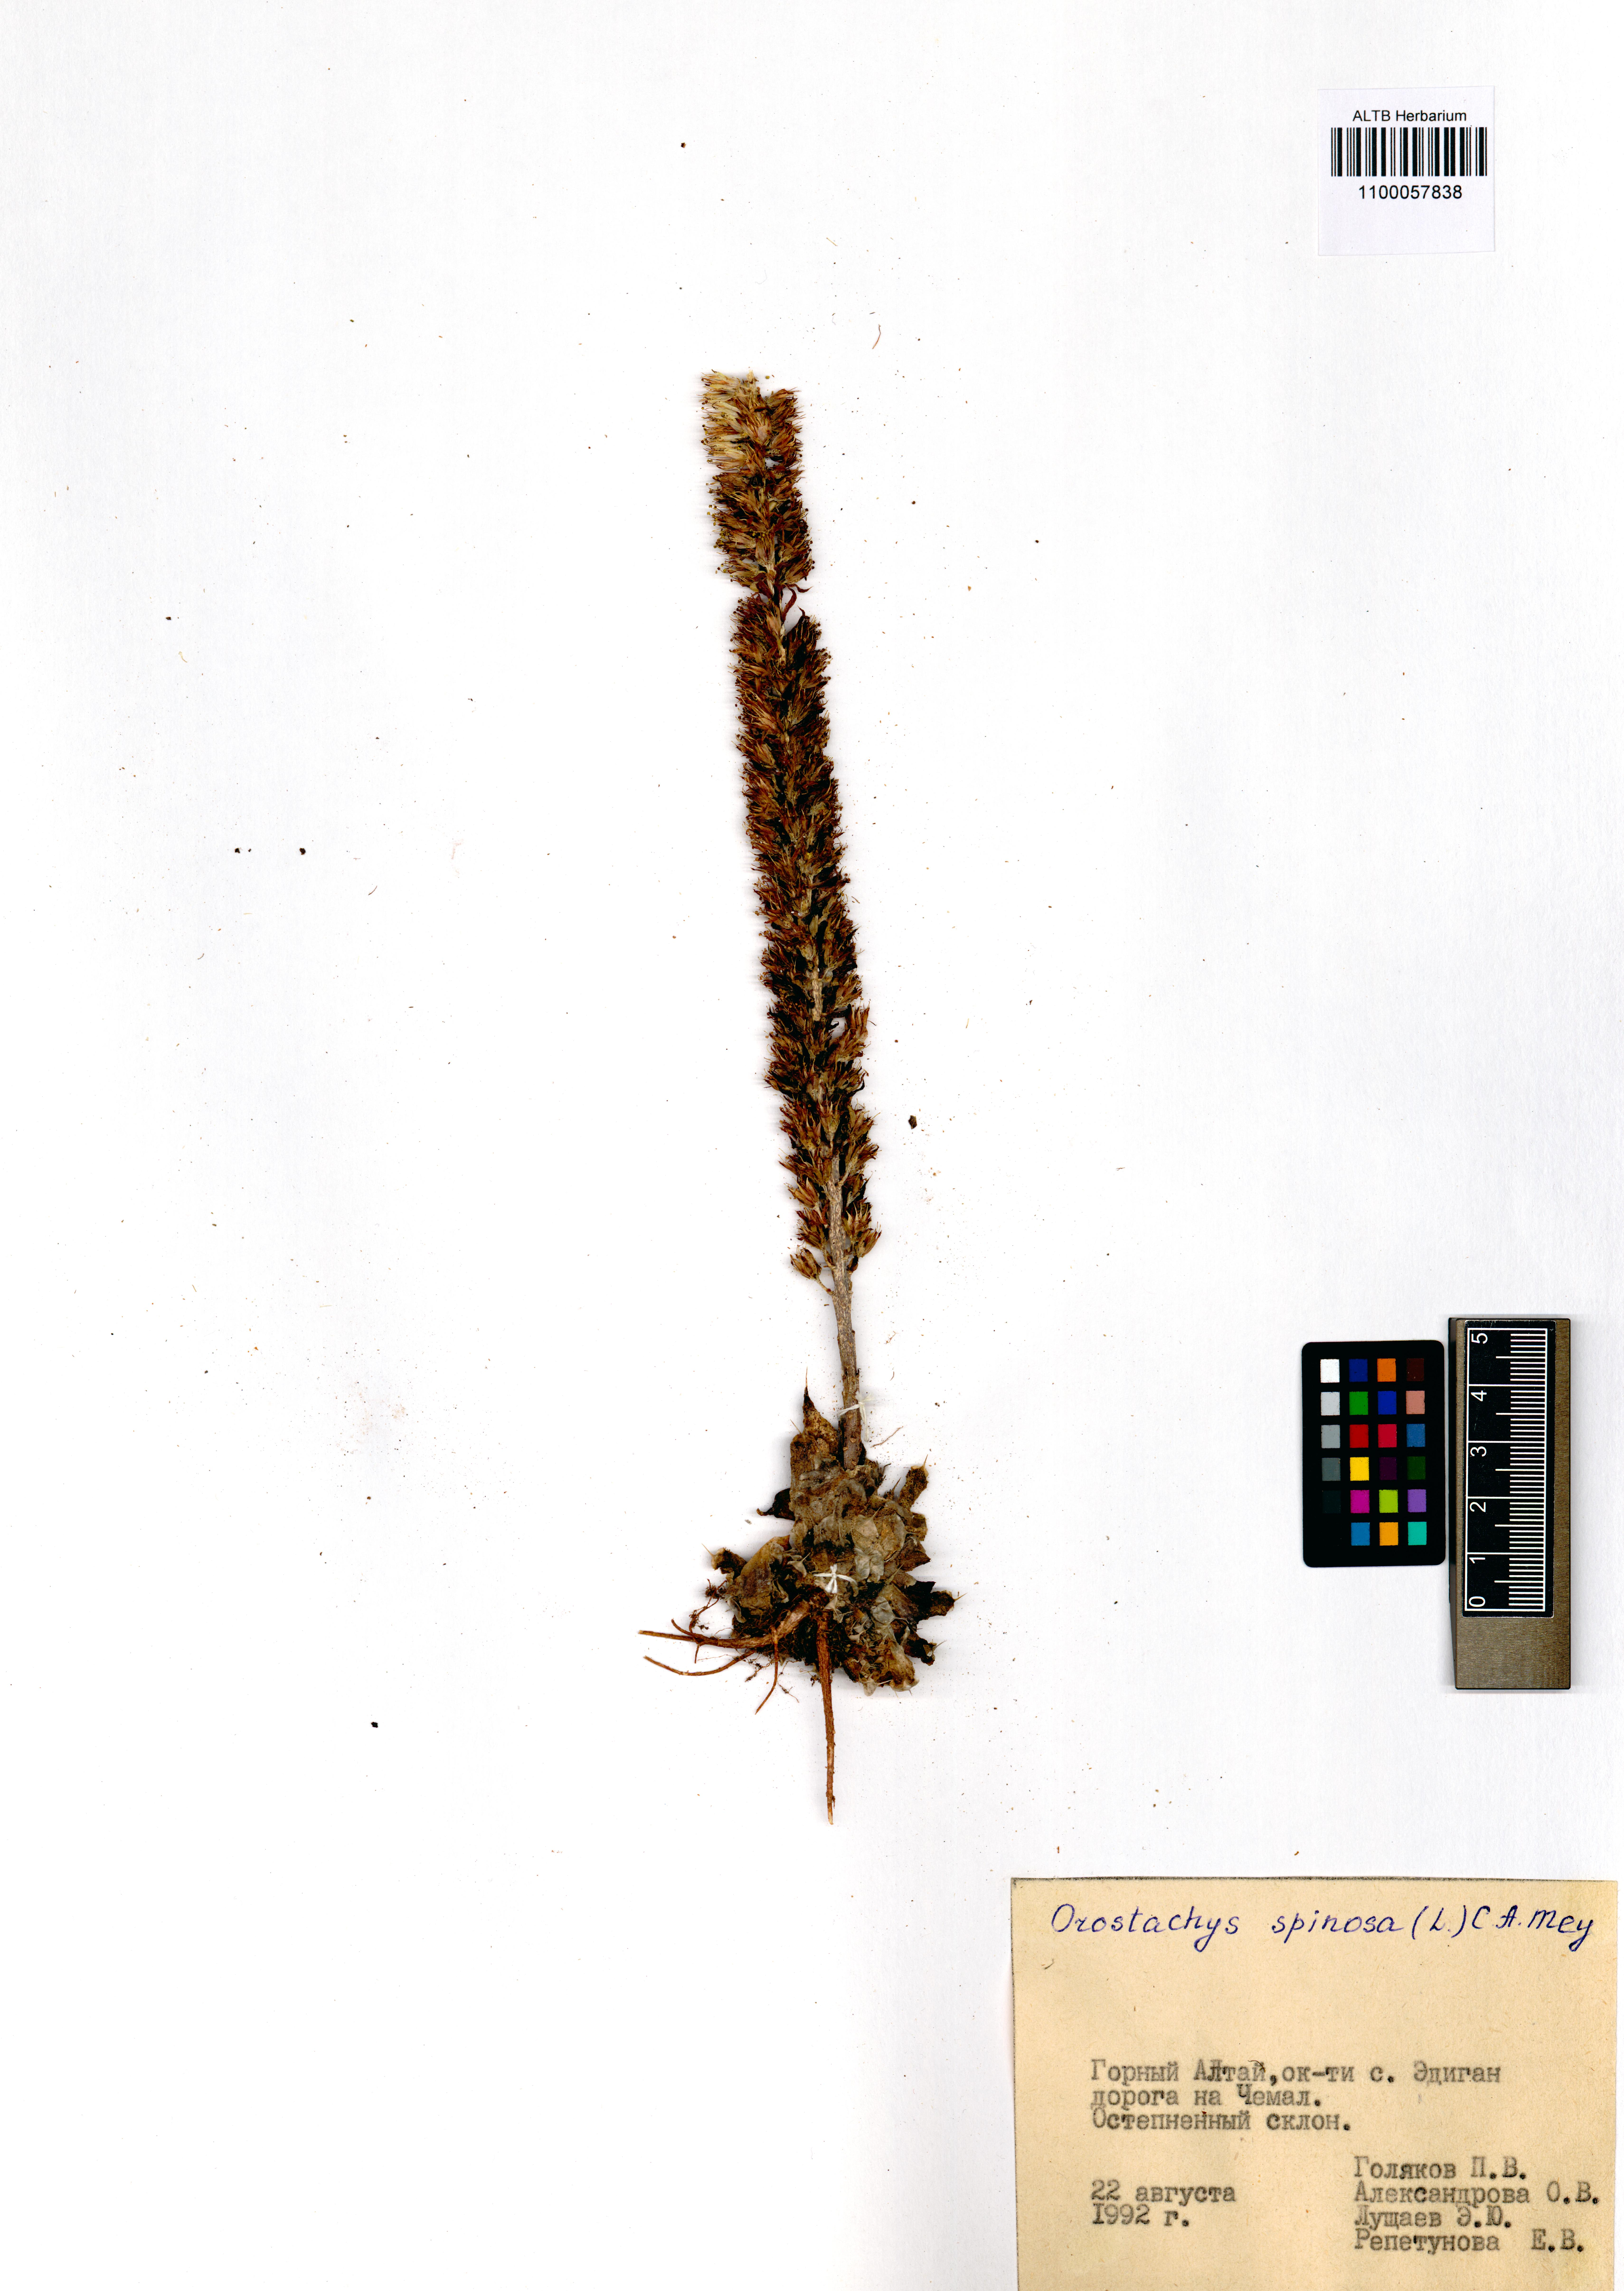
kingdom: Plantae
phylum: Tracheophyta
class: Magnoliopsida
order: Saxifragales
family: Crassulaceae
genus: Orostachys
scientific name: Orostachys spinosa
